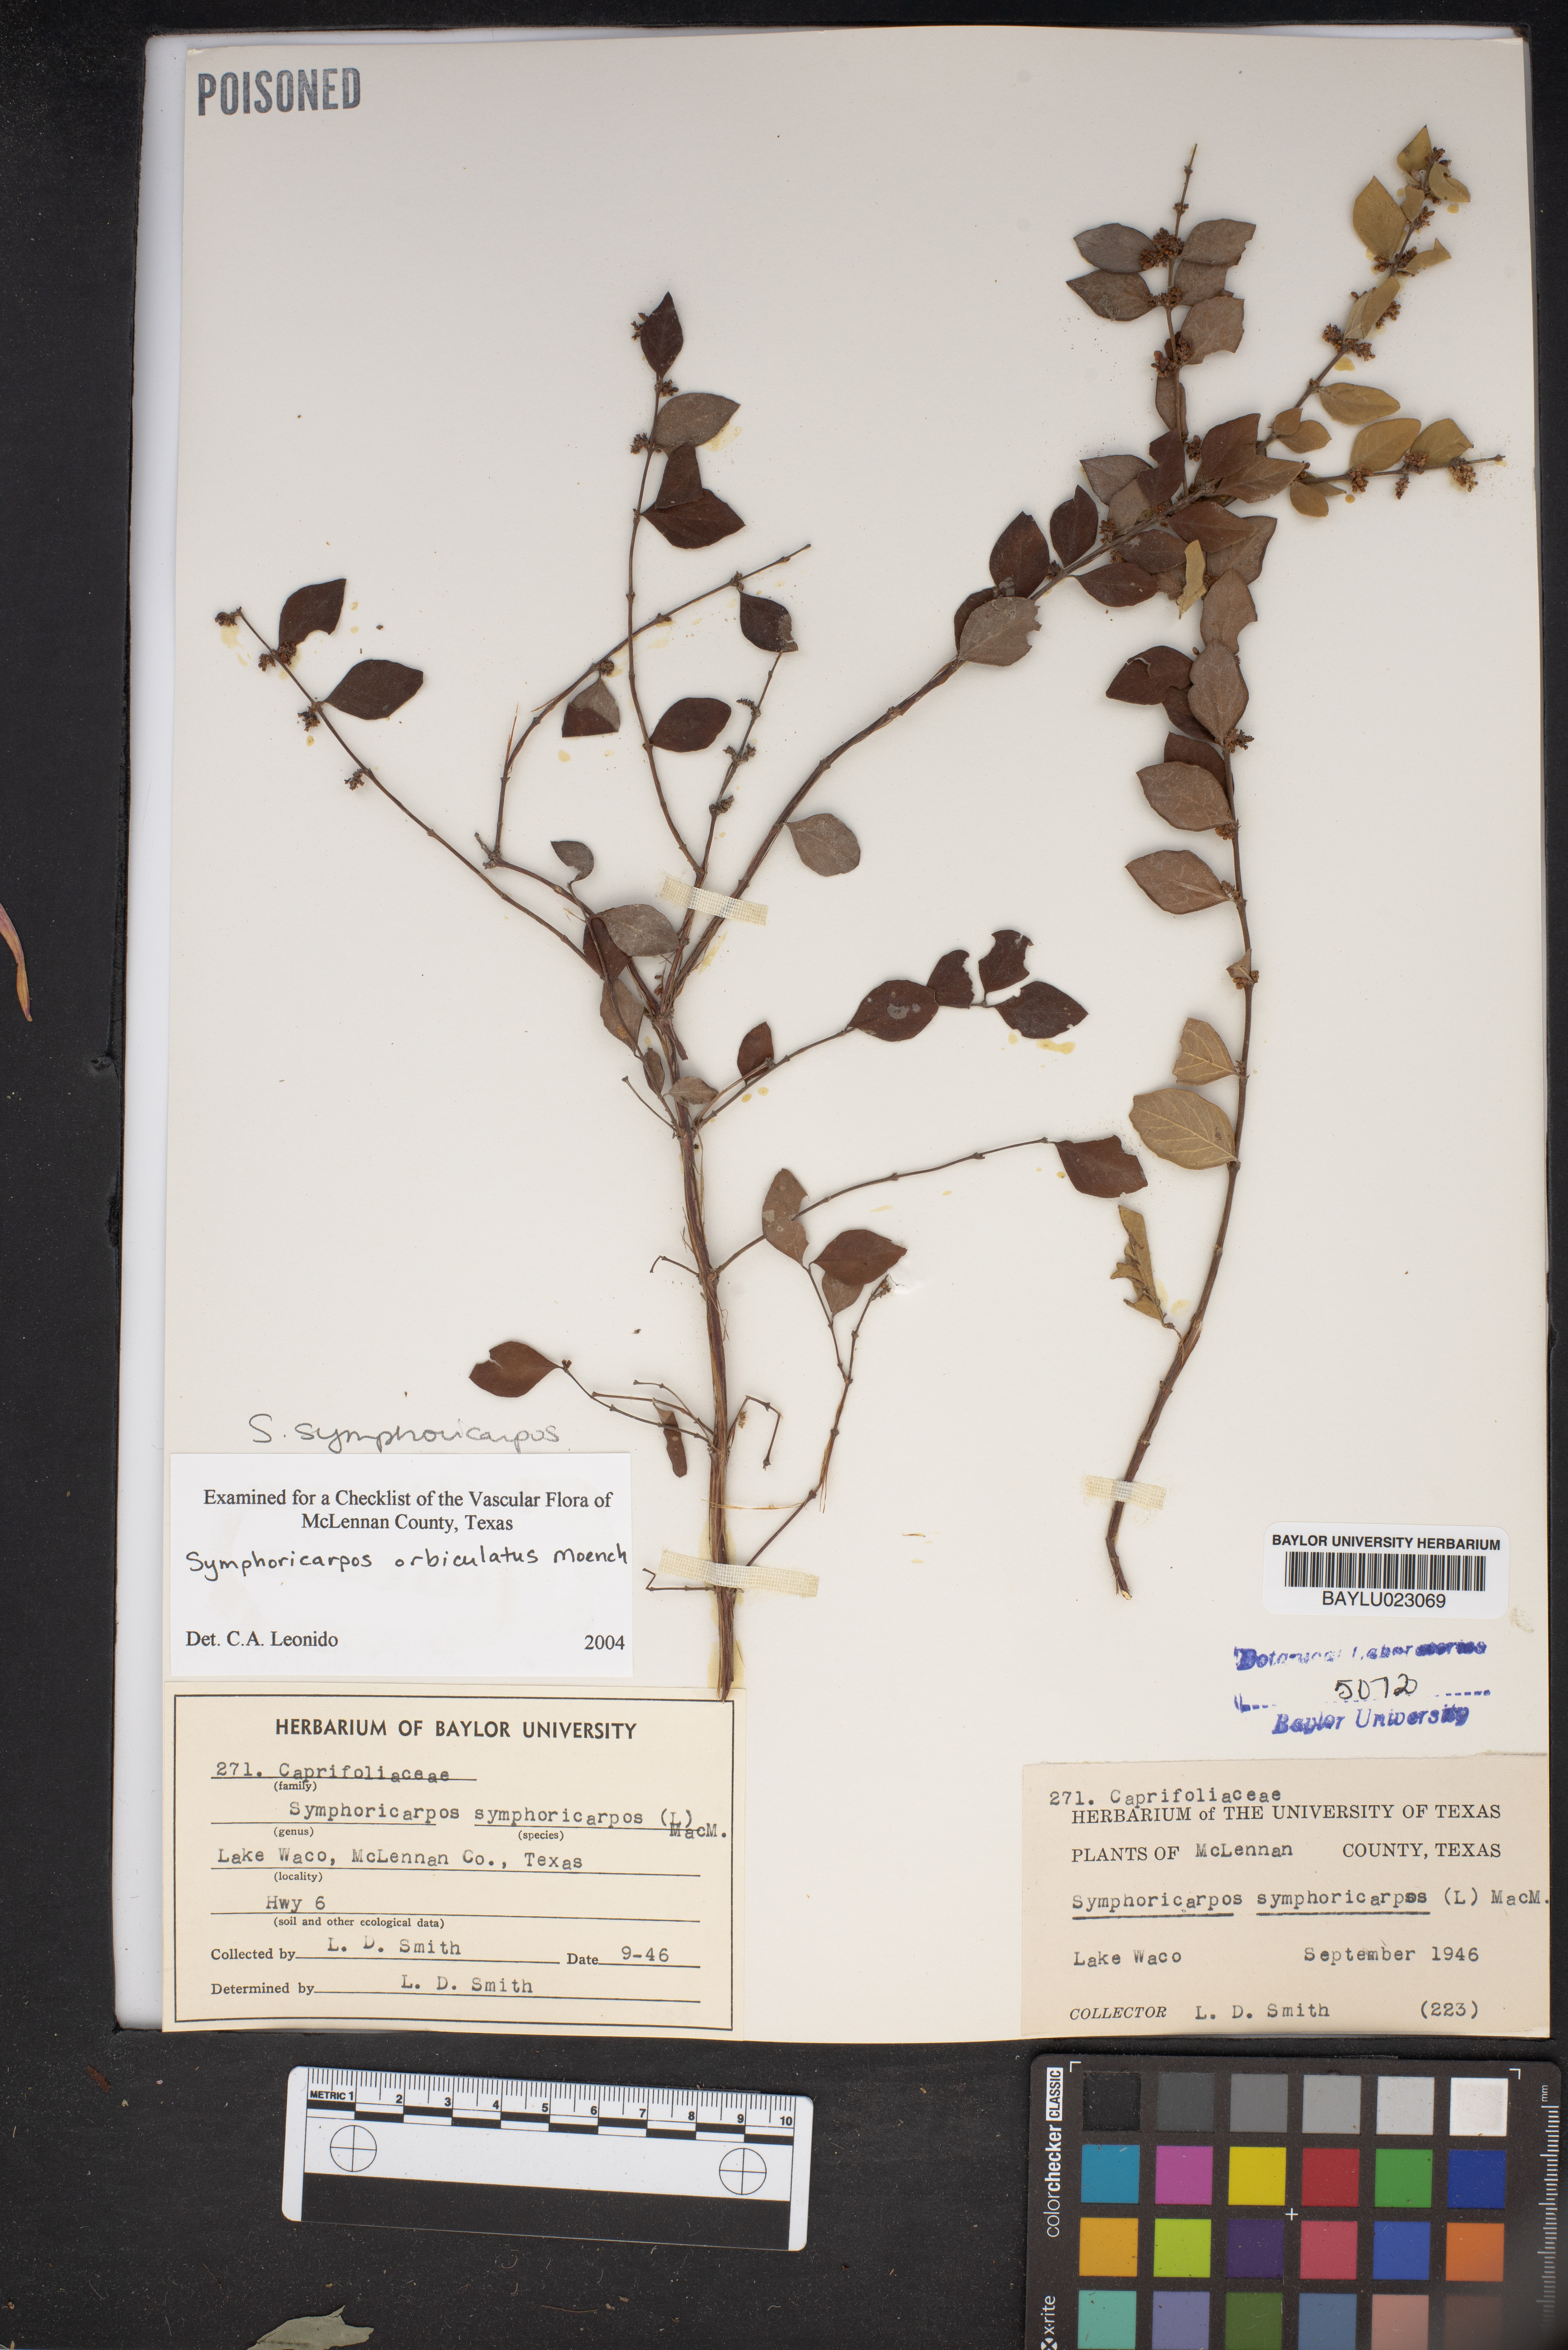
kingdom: Plantae
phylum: Tracheophyta
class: Magnoliopsida
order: Dipsacales
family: Caprifoliaceae
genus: Symphoricarpos
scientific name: Symphoricarpos orbiculatus
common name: Coralberry
